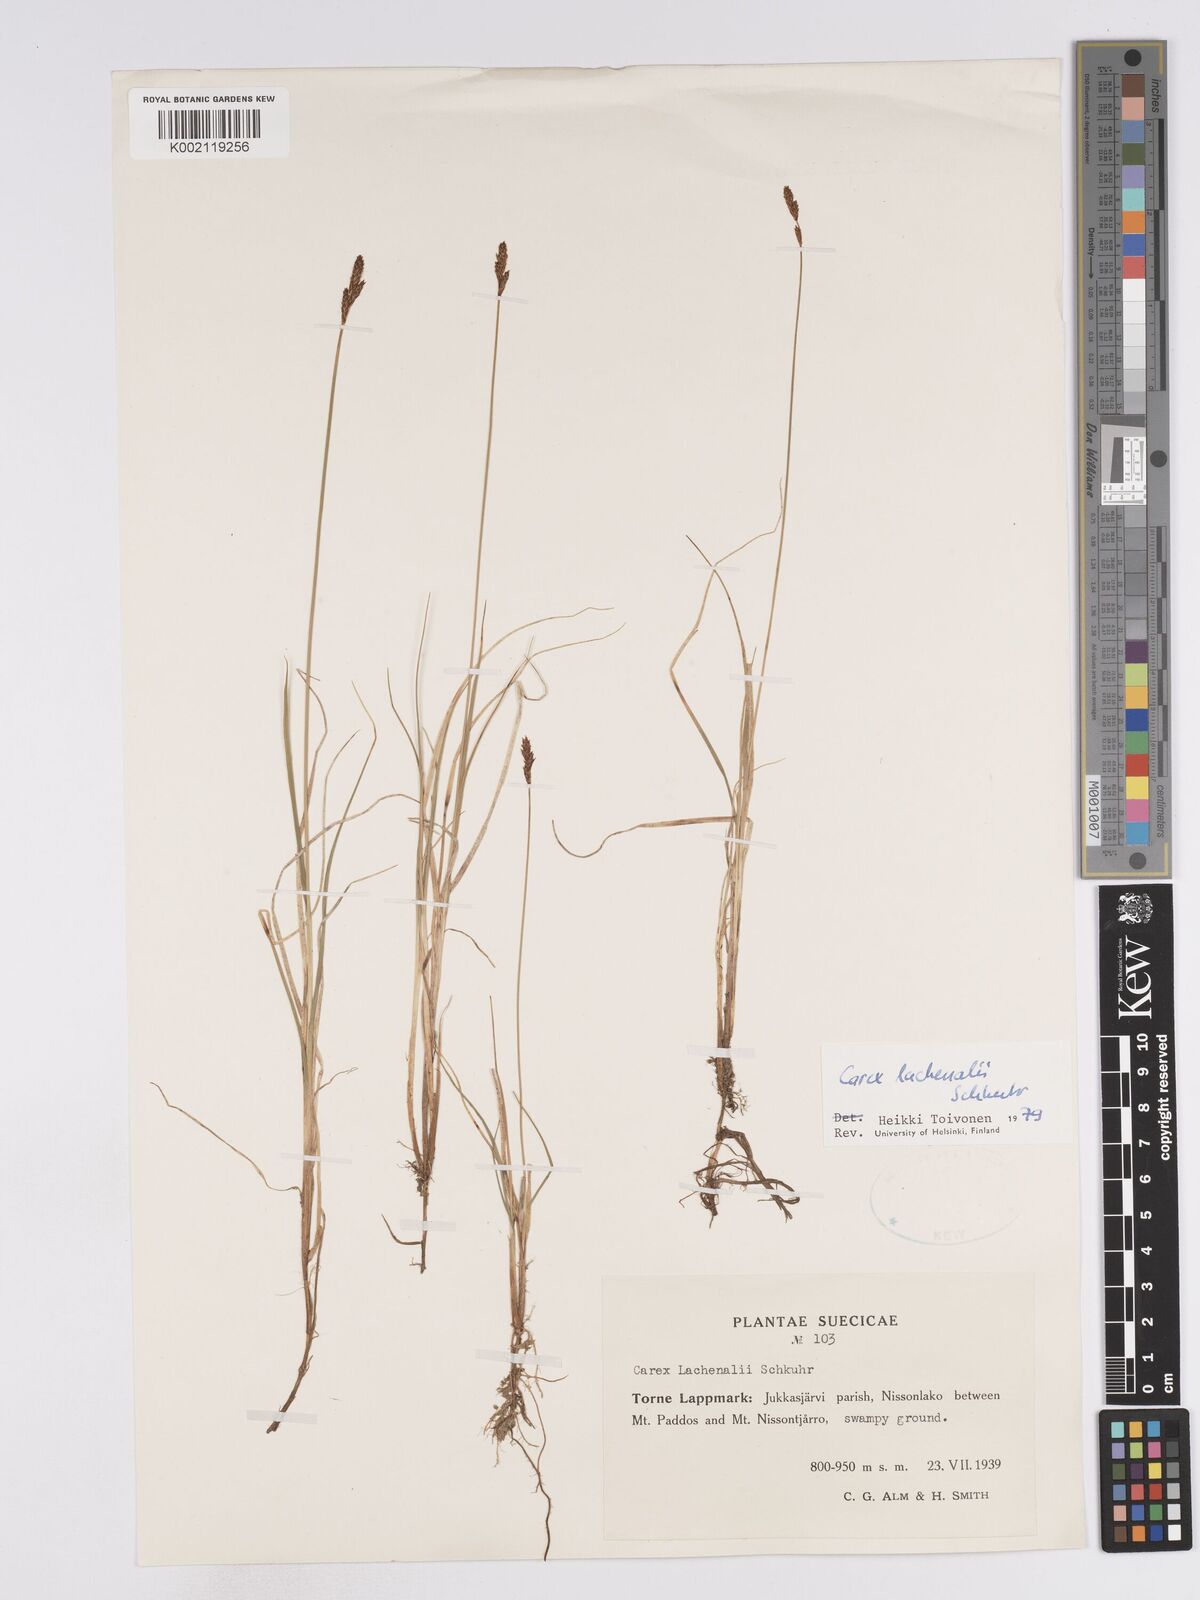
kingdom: Plantae
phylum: Tracheophyta
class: Liliopsida
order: Poales
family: Cyperaceae
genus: Carex
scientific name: Carex lachenalii
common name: Hare's-foot sedge
